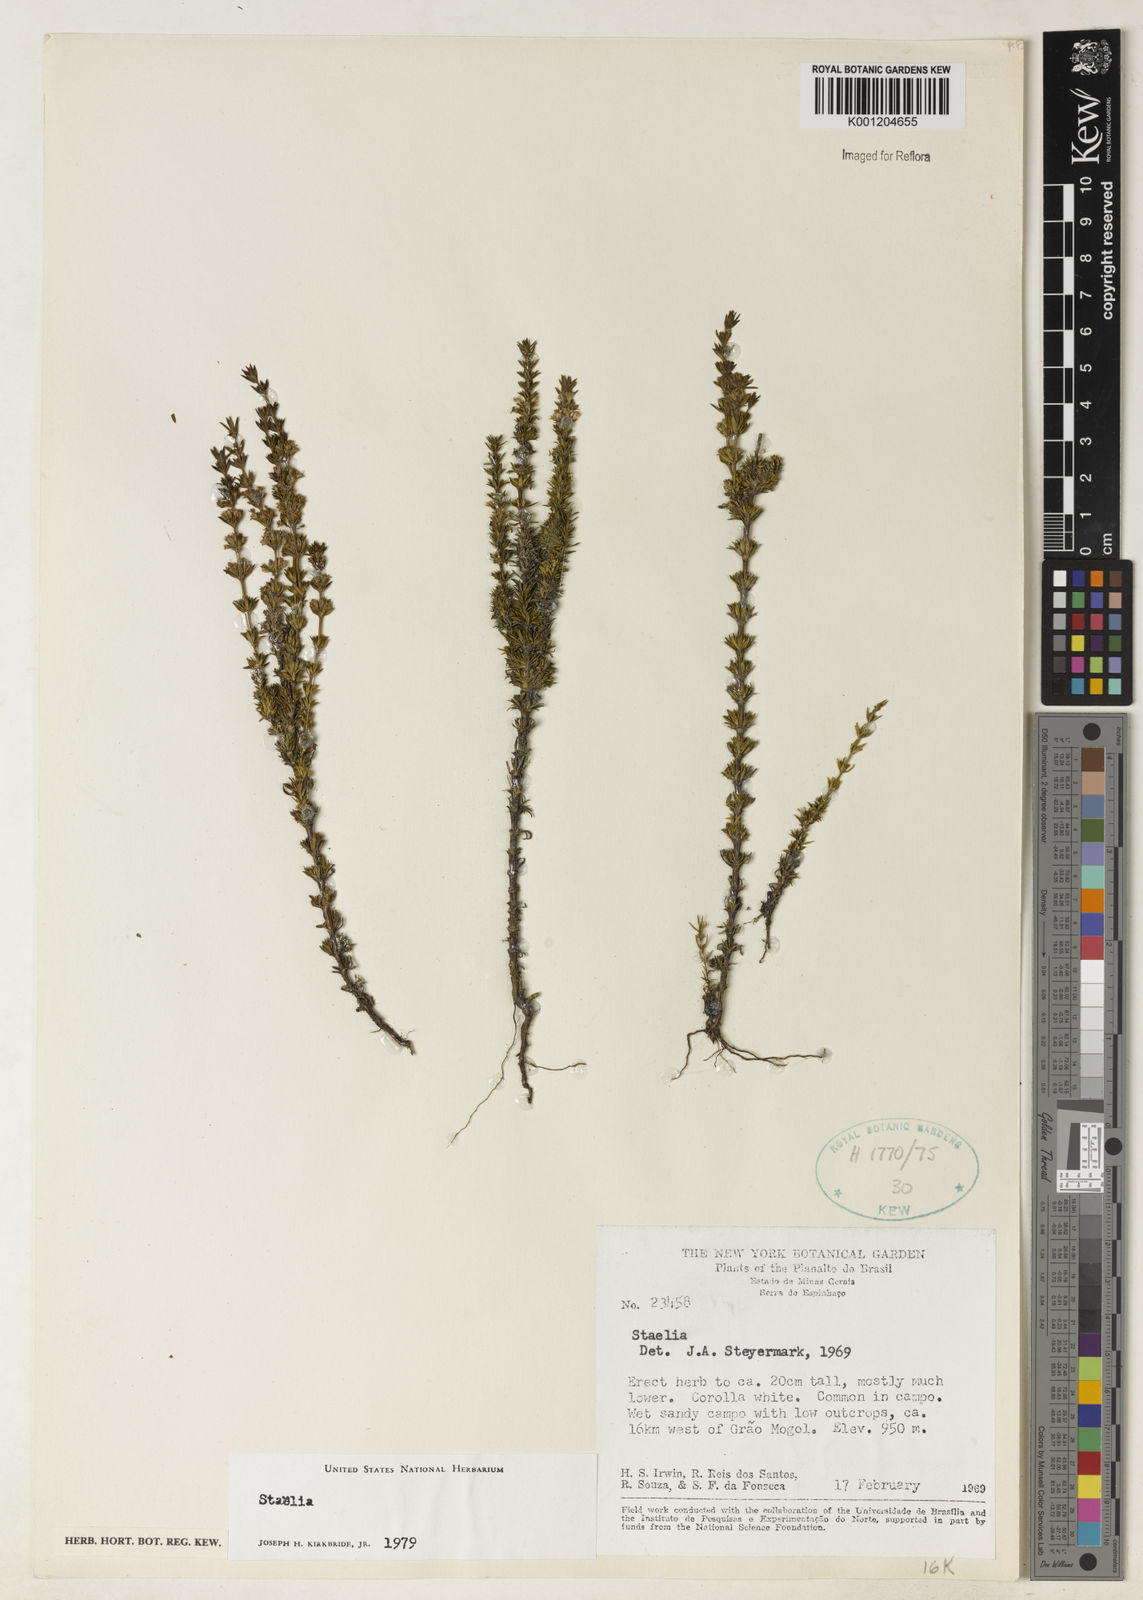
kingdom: Plantae
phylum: Tracheophyta
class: Magnoliopsida
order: Gentianales
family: Rubiaceae
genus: Staelia
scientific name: Staelia
